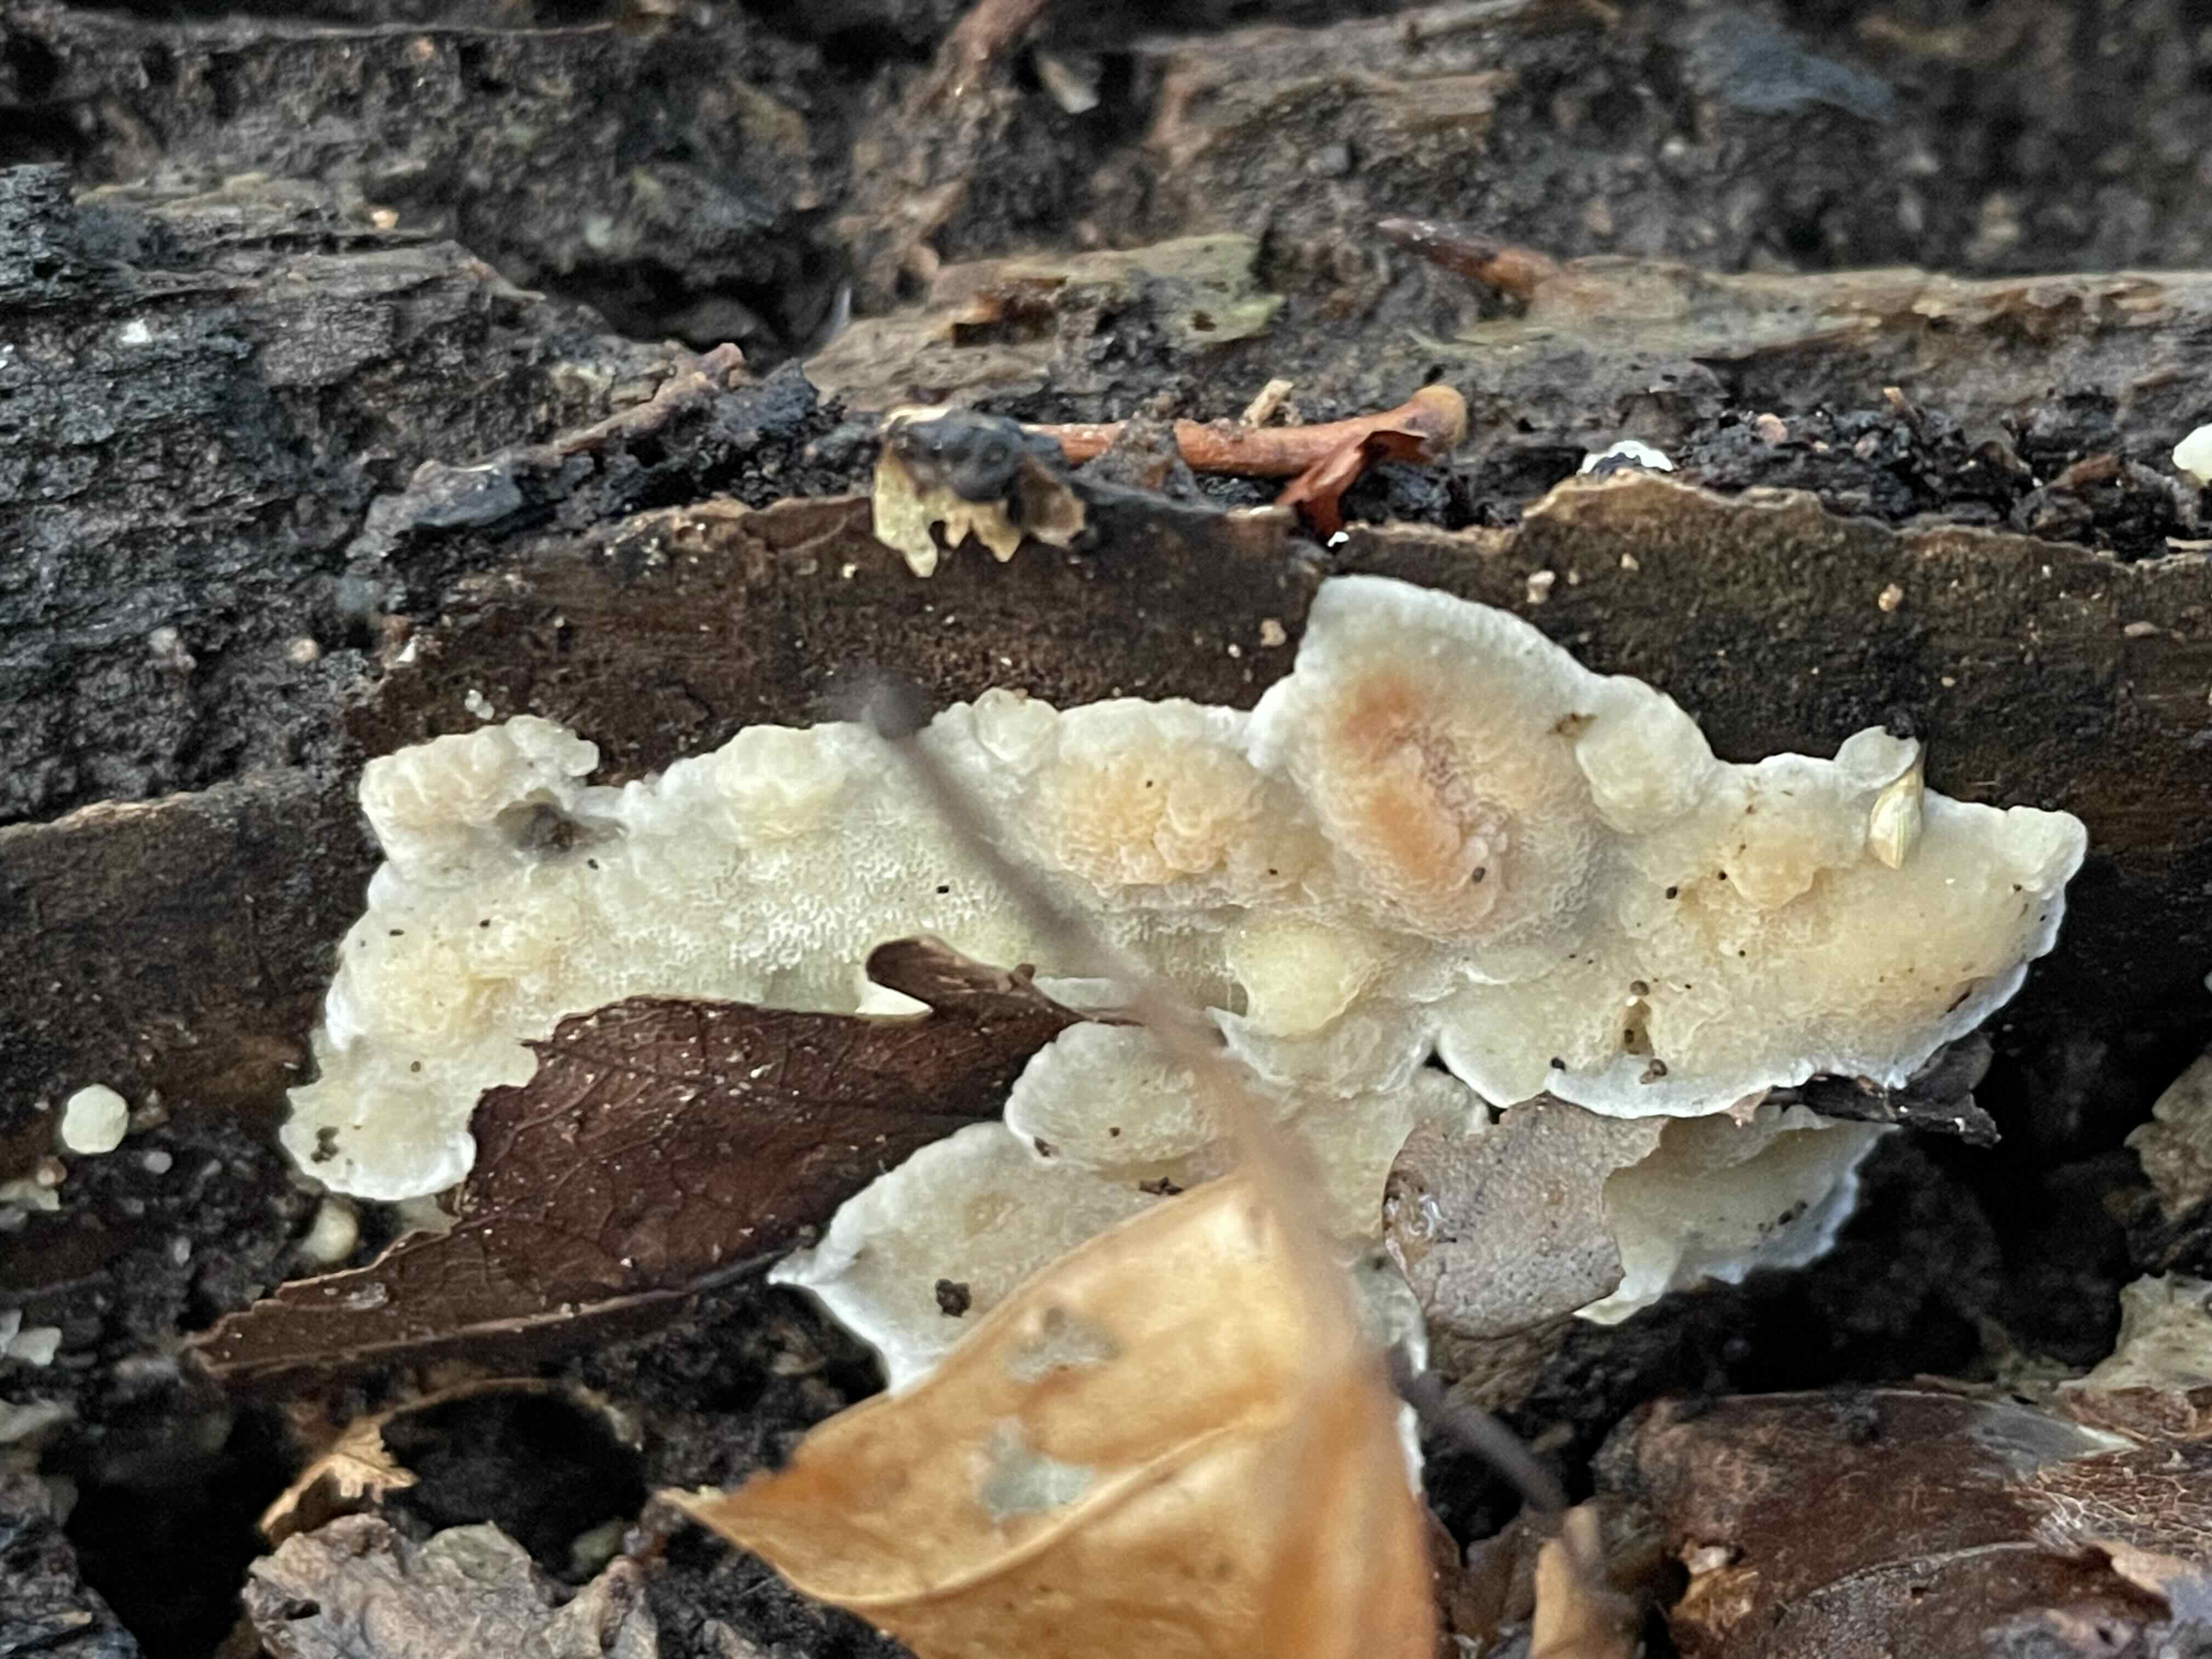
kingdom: Fungi
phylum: Basidiomycota
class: Agaricomycetes
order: Polyporales
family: Meripilaceae
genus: Rigidoporus
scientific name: Rigidoporus sanguinolentus
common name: blod-skorpeporesvamp
